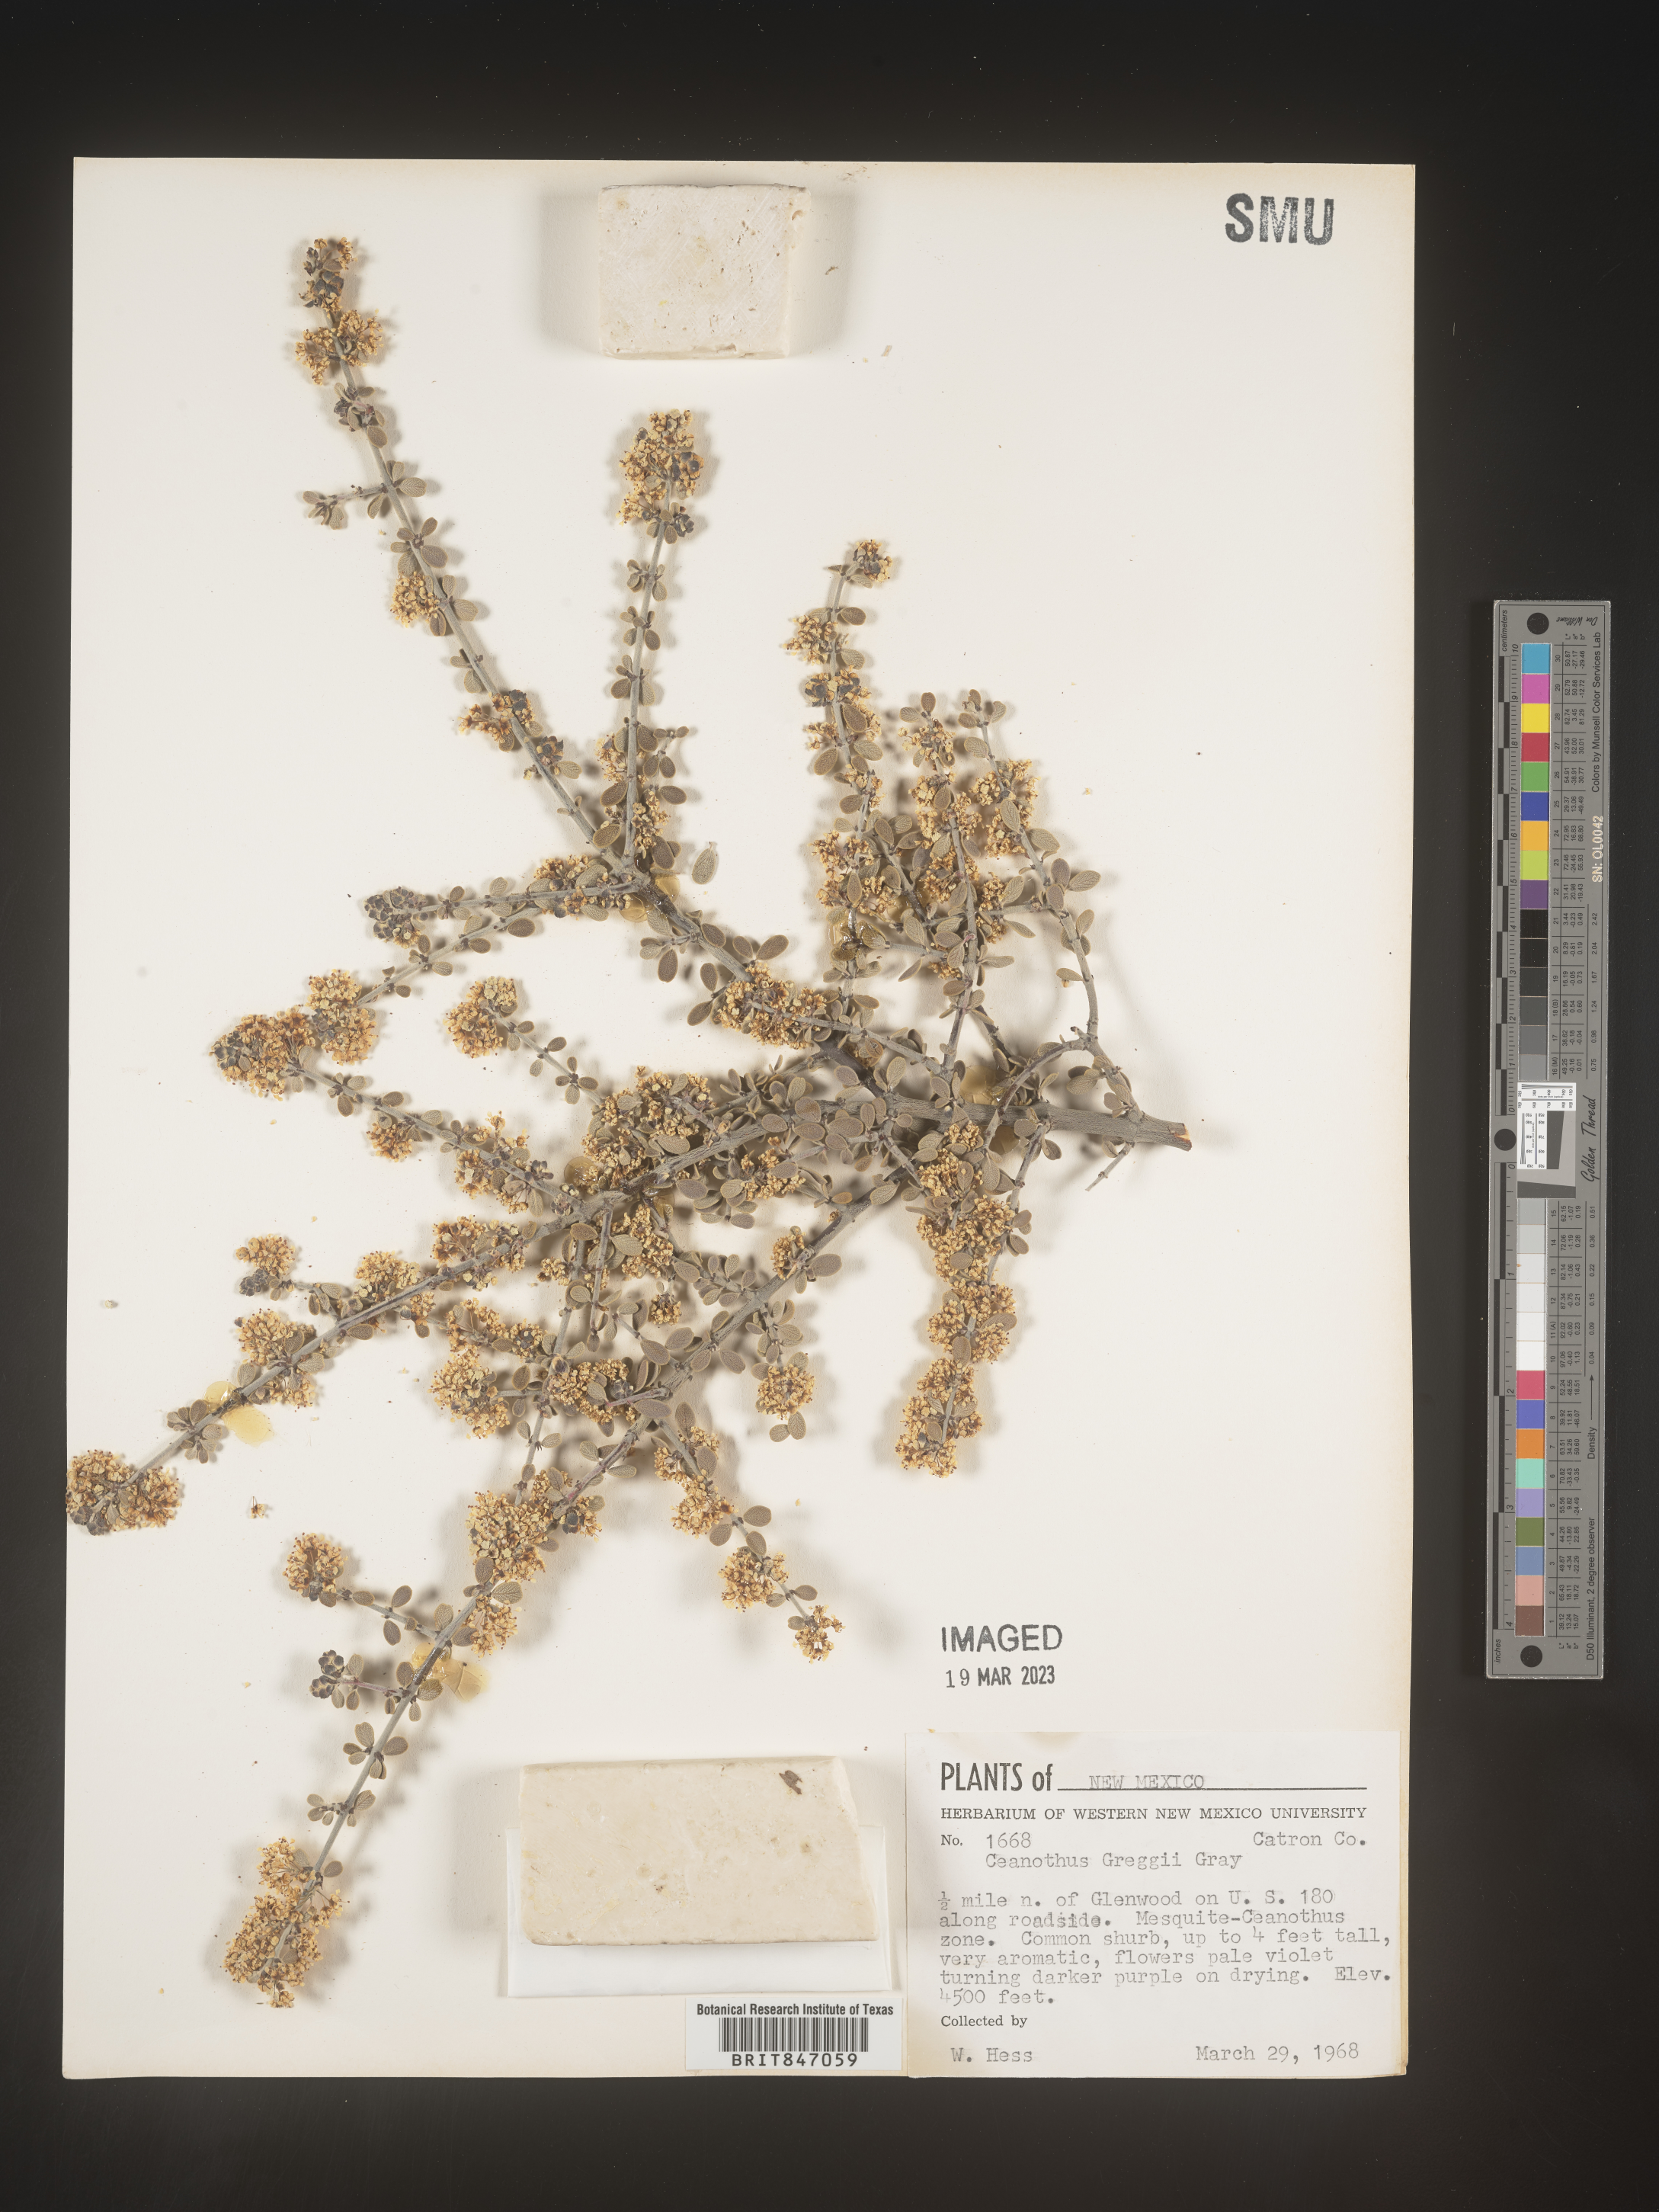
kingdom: Plantae
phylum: Tracheophyta
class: Magnoliopsida
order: Rosales
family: Rhamnaceae
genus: Ceanothus
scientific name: Ceanothus
